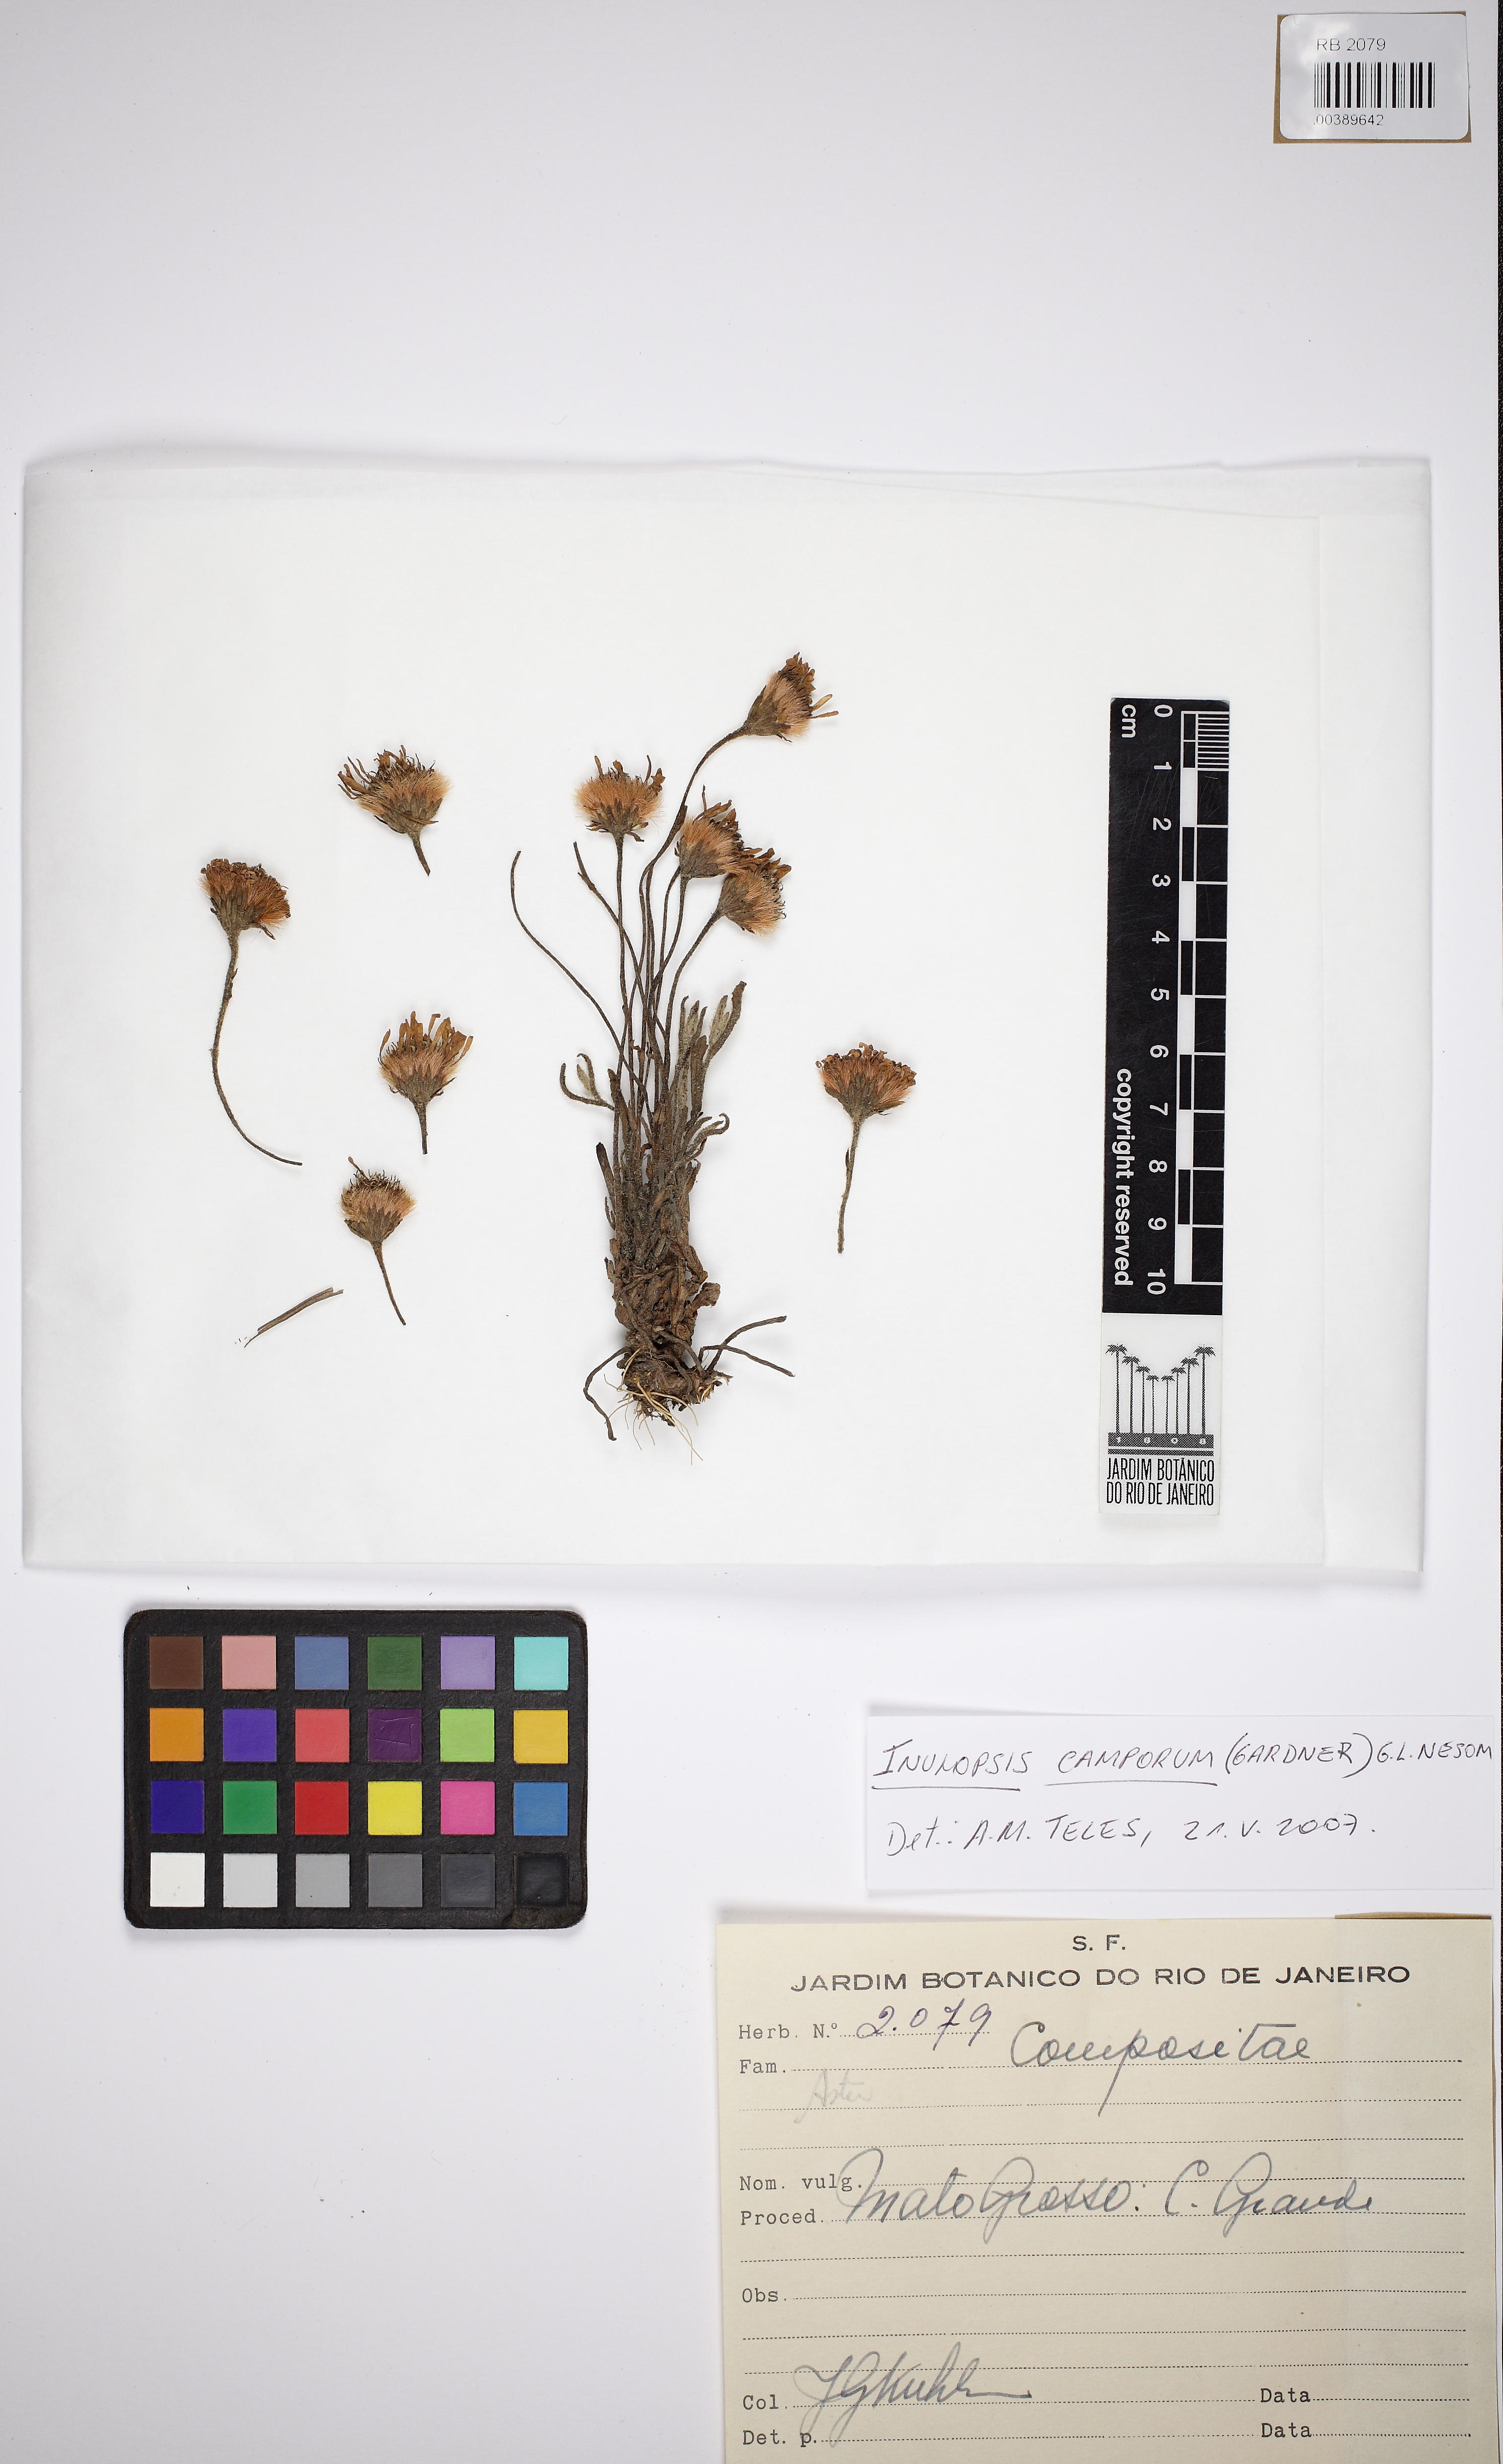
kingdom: Plantae
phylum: Tracheophyta
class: Magnoliopsida
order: Asterales
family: Asteraceae
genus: Inulopsis
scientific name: Inulopsis camporum
